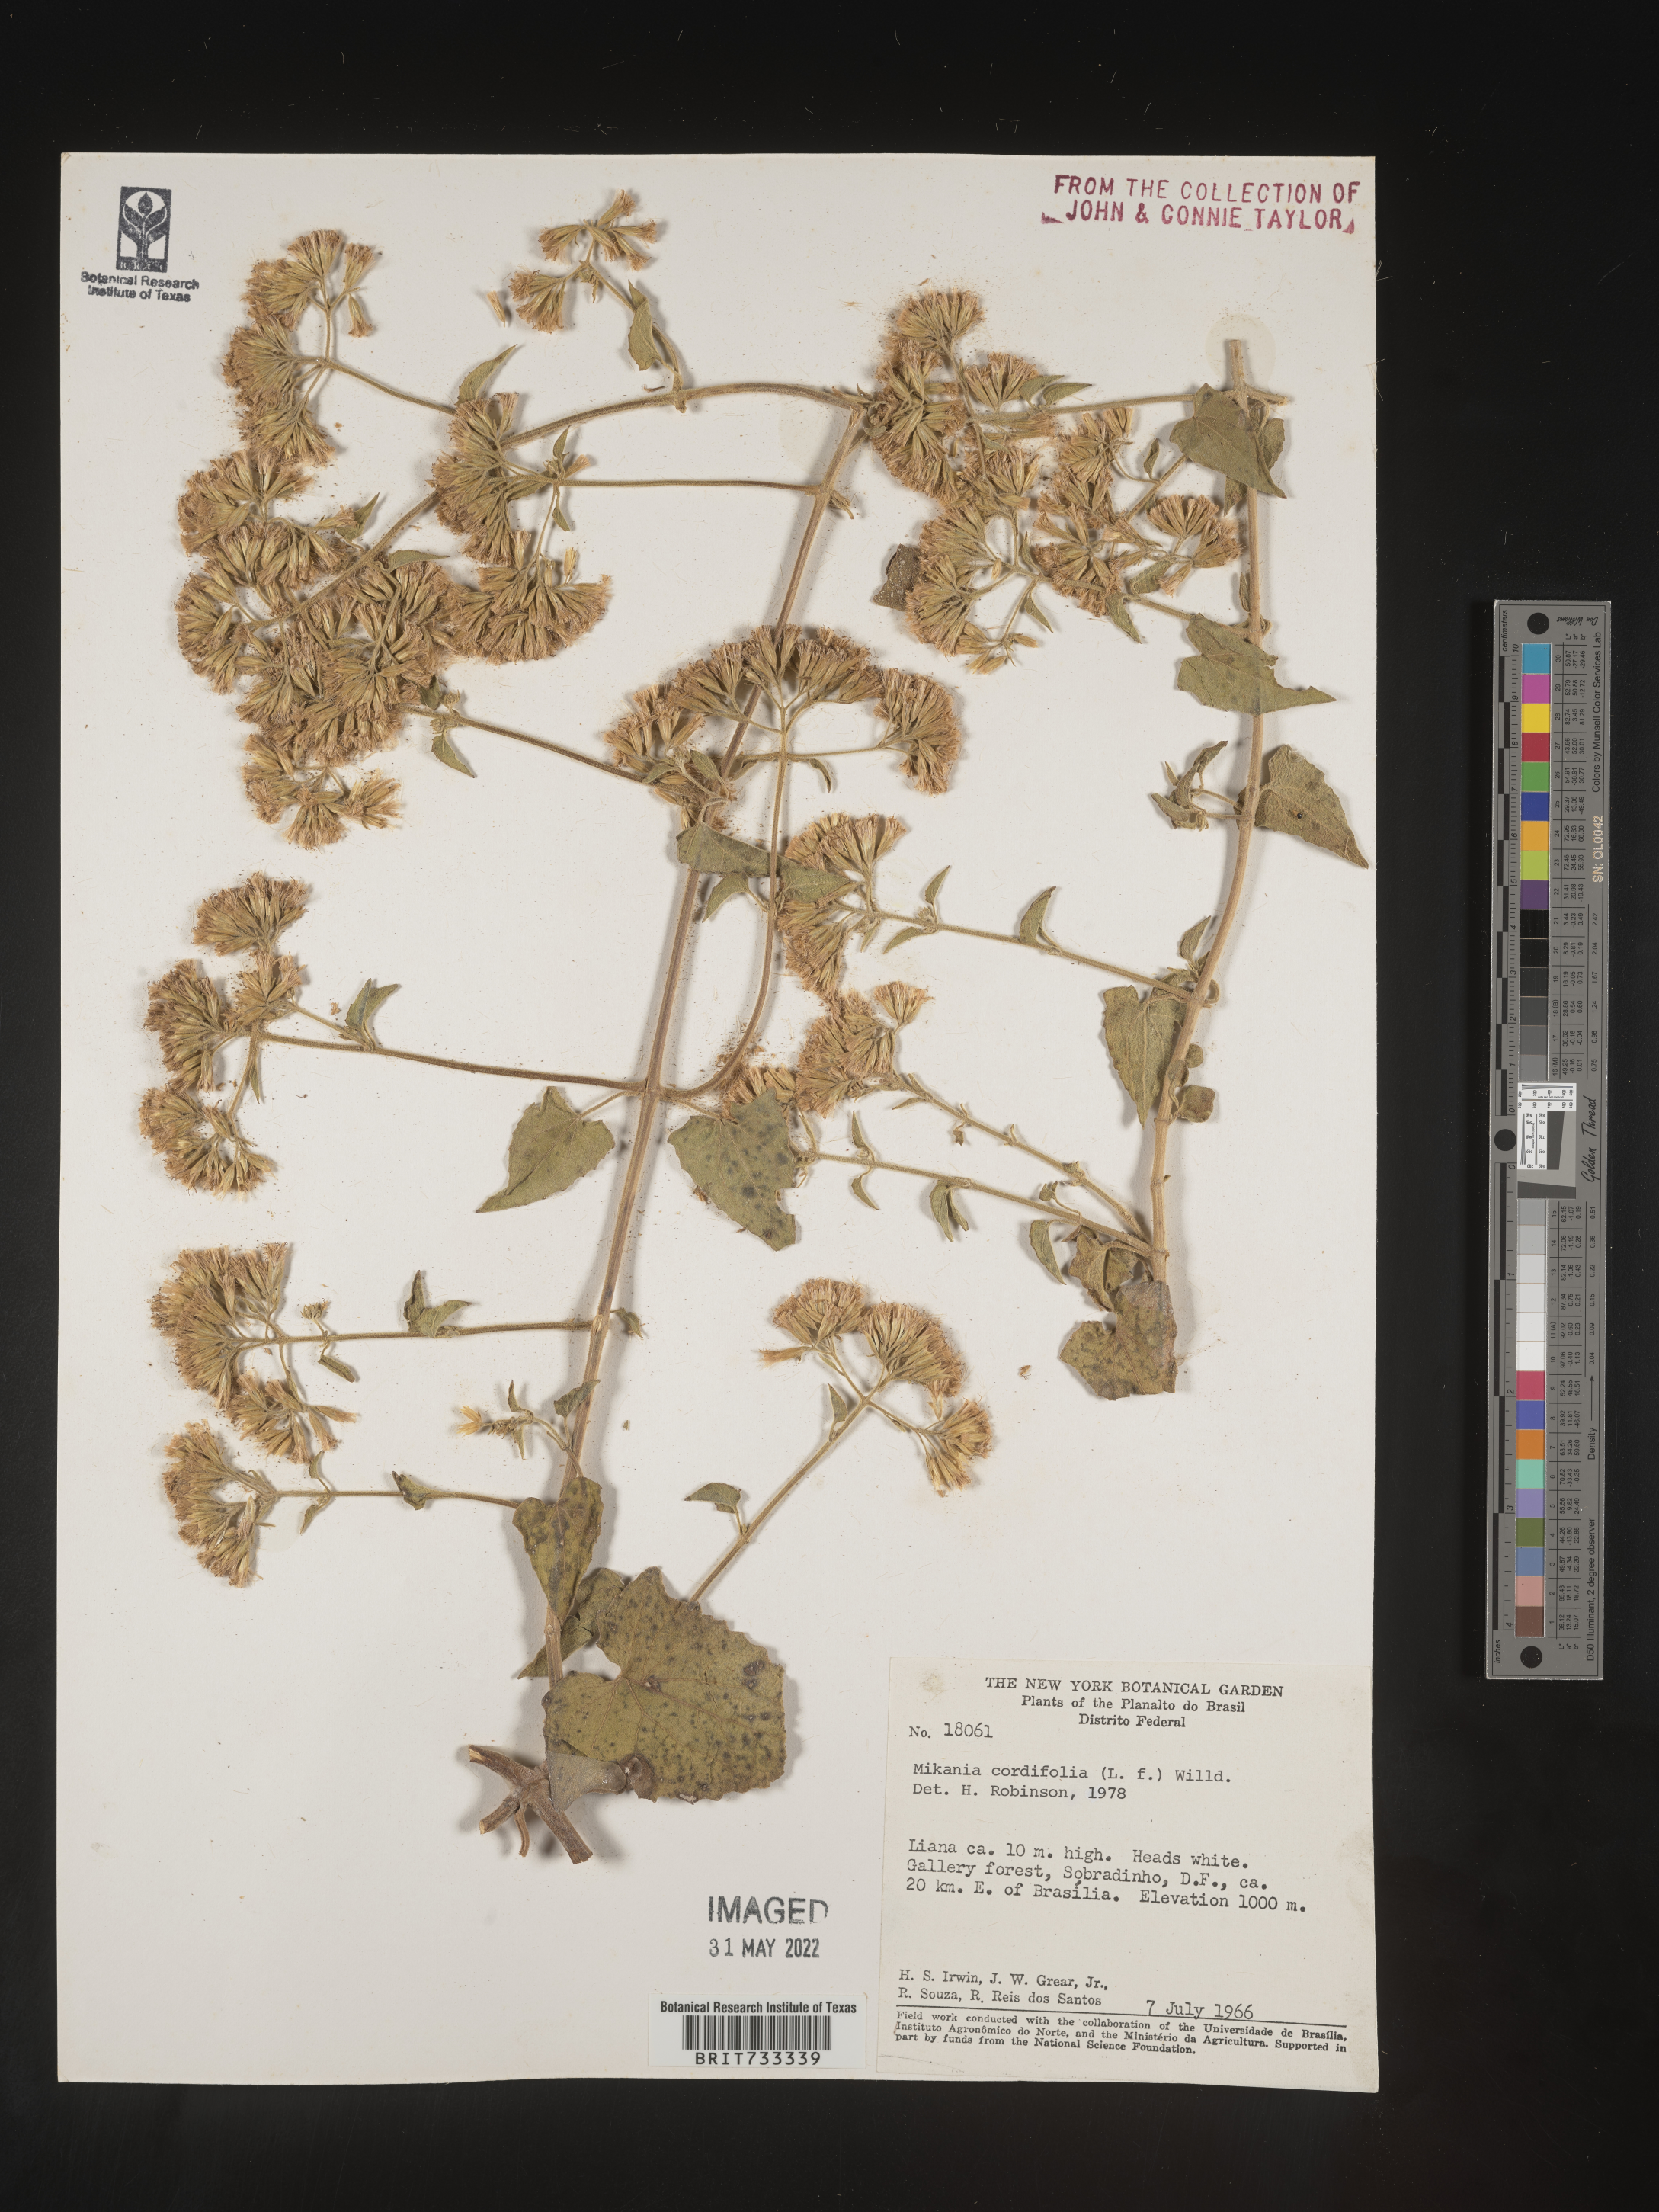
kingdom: Plantae
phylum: Tracheophyta
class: Magnoliopsida
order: Asterales
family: Asteraceae
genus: Mikania
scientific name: Mikania
